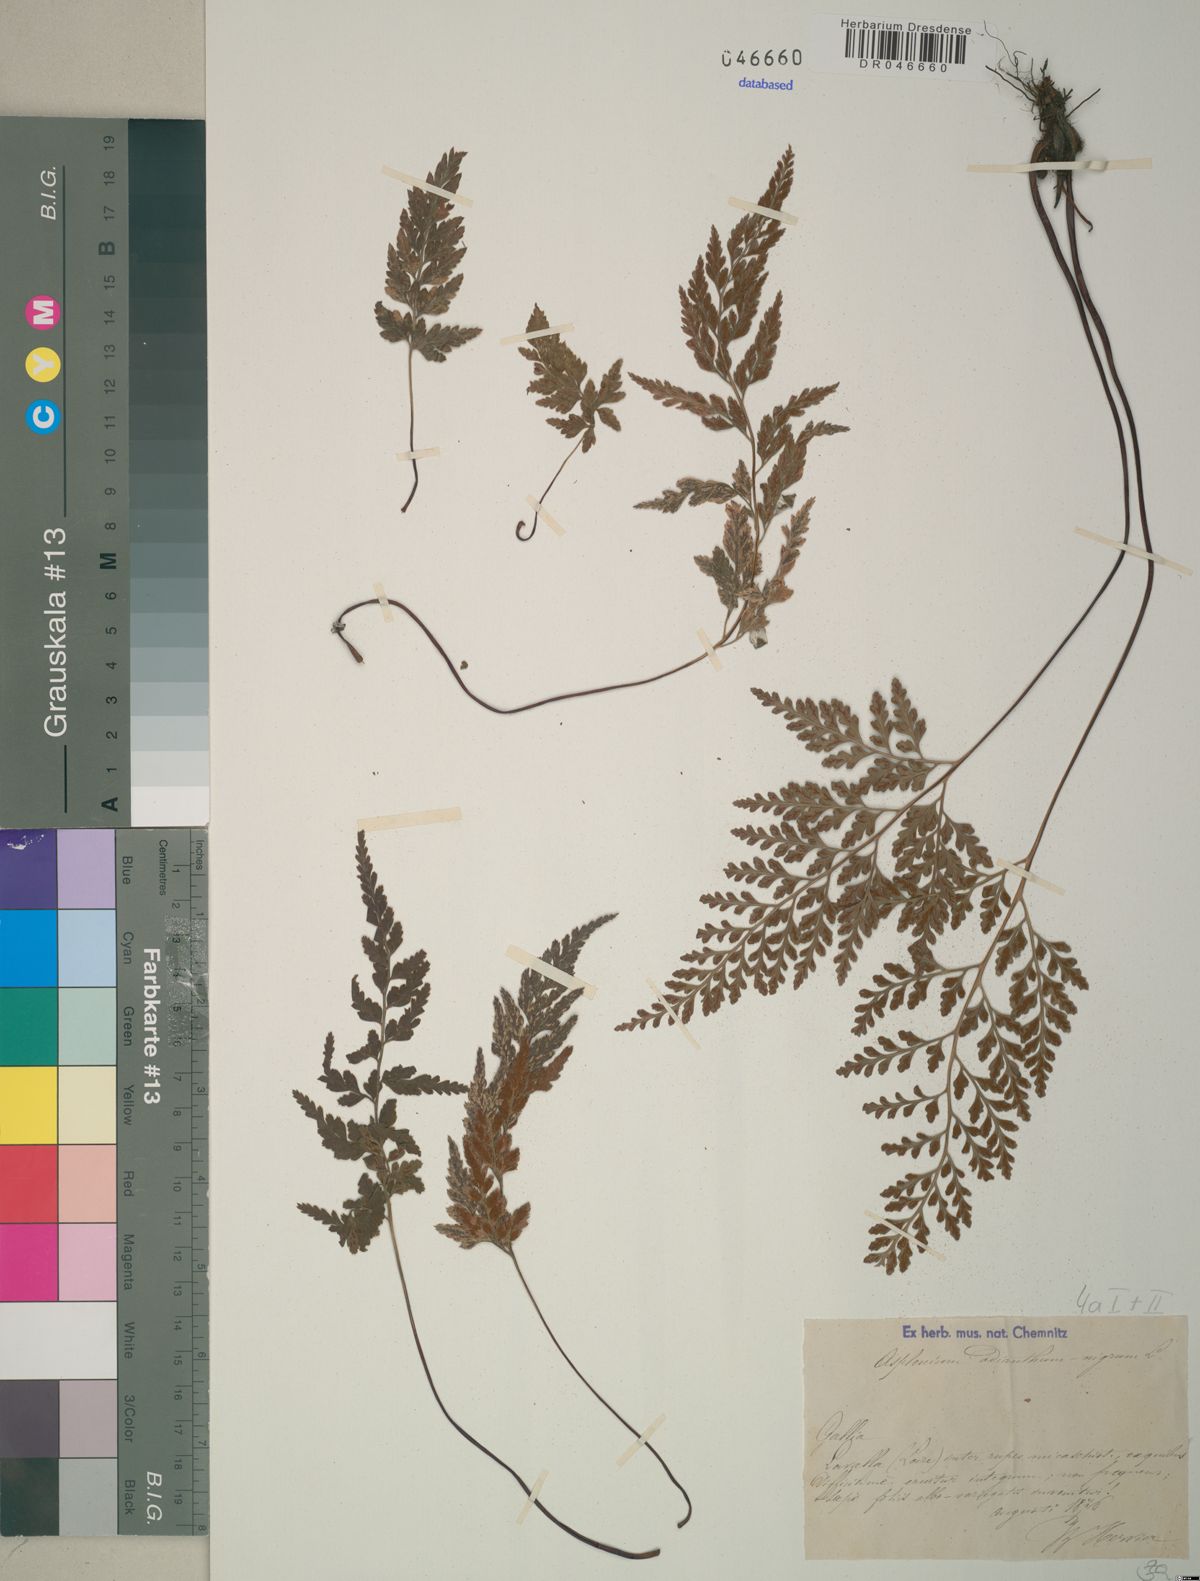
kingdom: Plantae
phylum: Tracheophyta
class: Polypodiopsida
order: Polypodiales
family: Aspleniaceae
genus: Asplenium
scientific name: Asplenium adiantum-nigrum
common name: Black spleenwort
